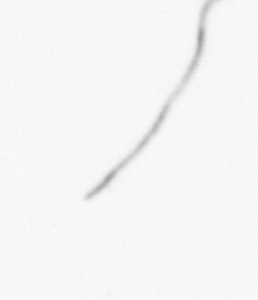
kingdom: Chromista
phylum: Ochrophyta
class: Bacillariophyceae
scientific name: Bacillariophyceae
